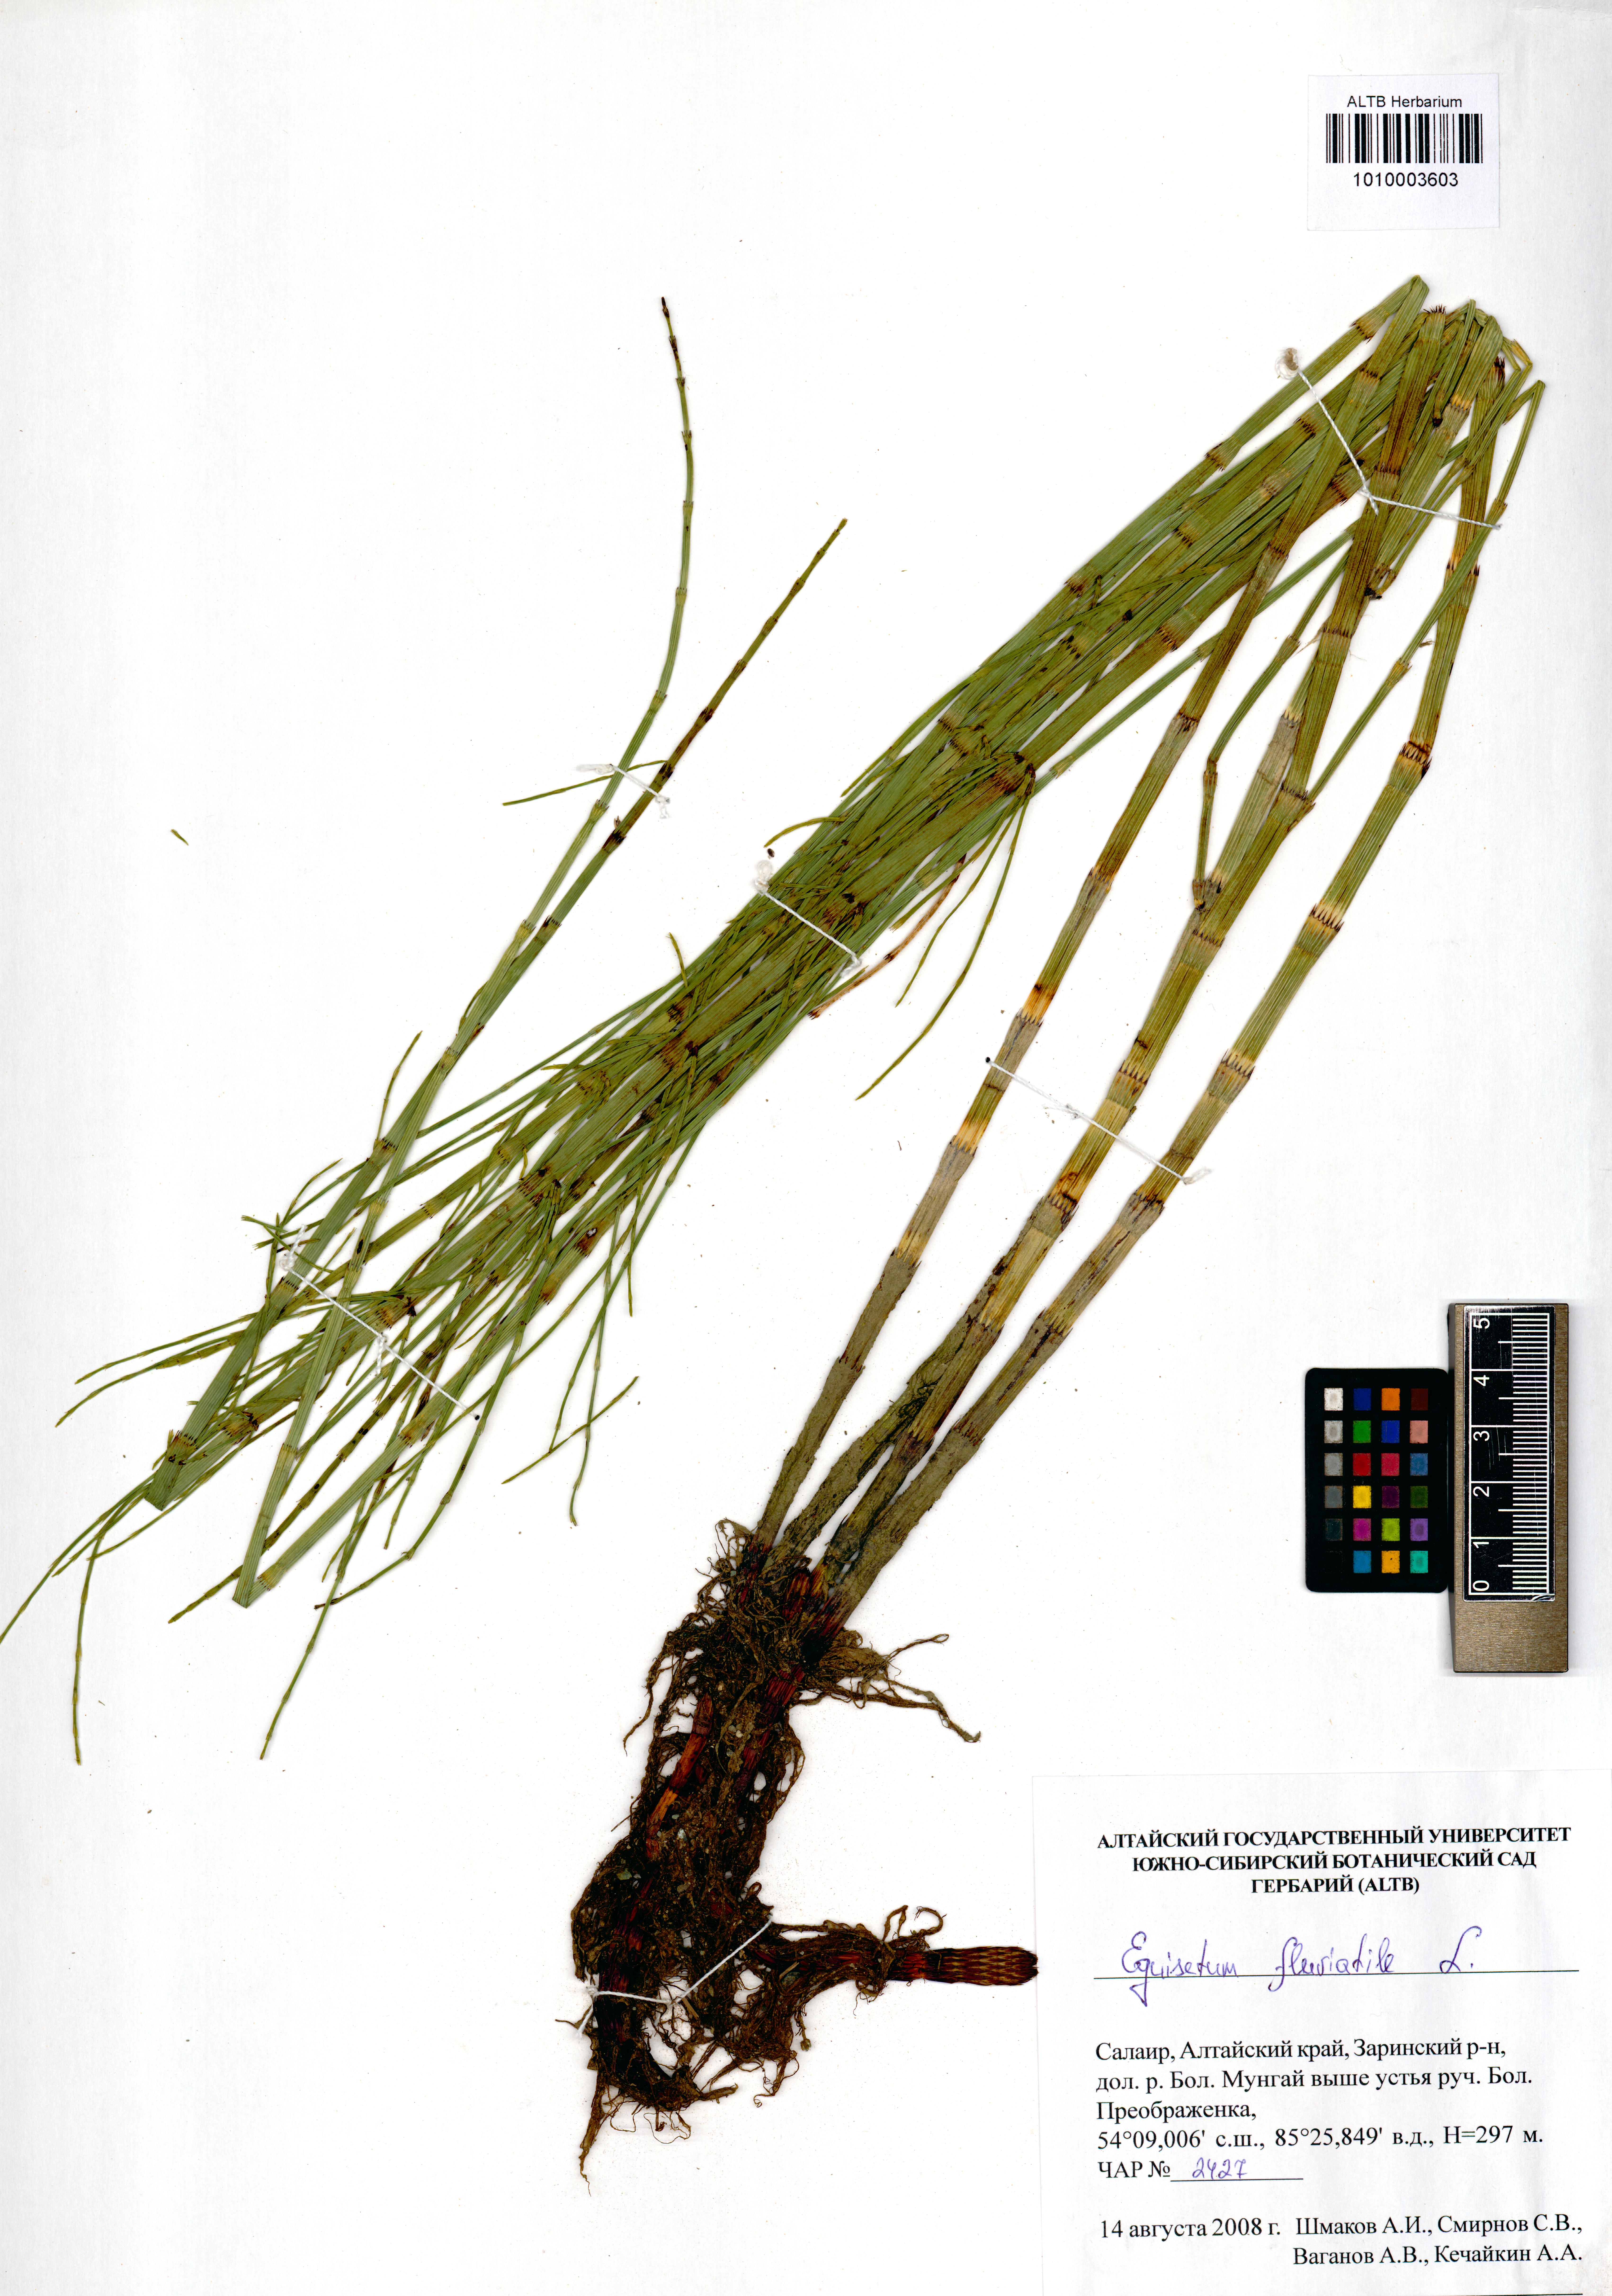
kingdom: Plantae
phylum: Tracheophyta
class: Polypodiopsida
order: Equisetales
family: Equisetaceae
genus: Equisetum
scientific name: Equisetum fluviatile
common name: Water horsetail
